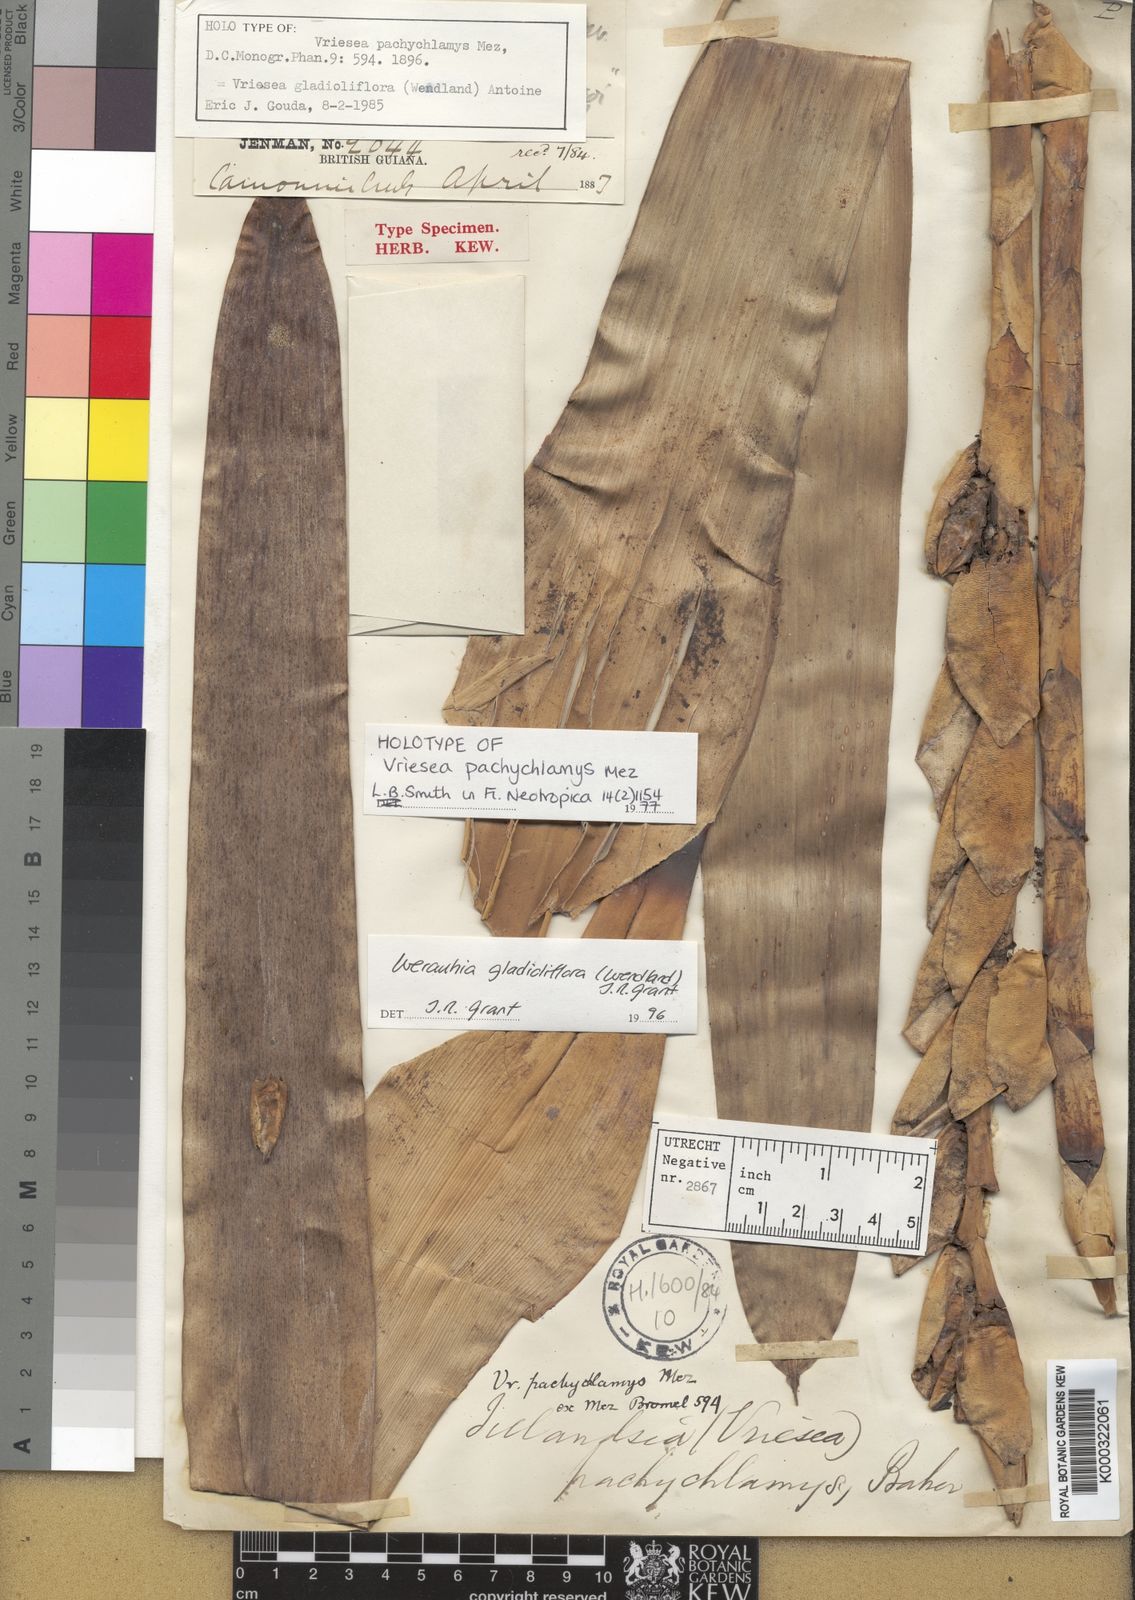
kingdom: Plantae
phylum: Tracheophyta
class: Liliopsida
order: Poales
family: Bromeliaceae
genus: Werauhia
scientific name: Werauhia gladioliflora
